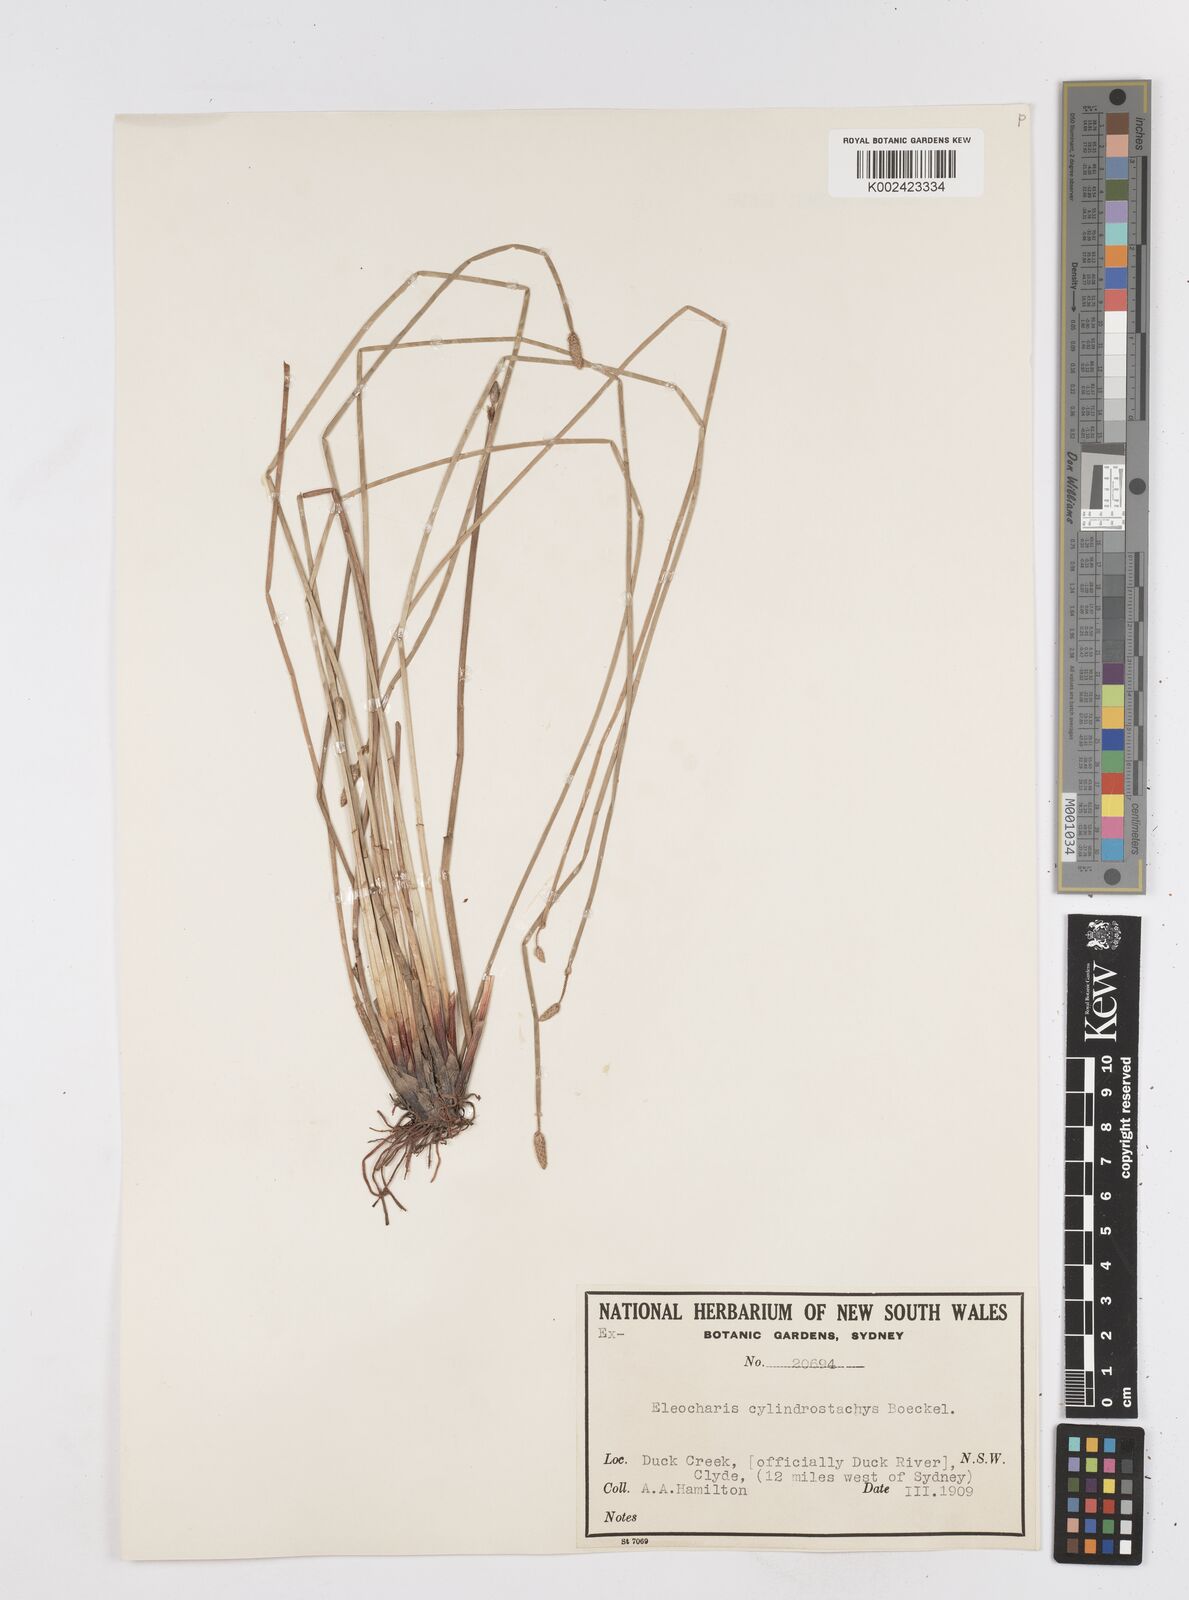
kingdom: Plantae
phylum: Tracheophyta
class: Liliopsida
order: Poales
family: Cyperaceae
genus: Eleocharis
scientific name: Eleocharis cylindrostachys
